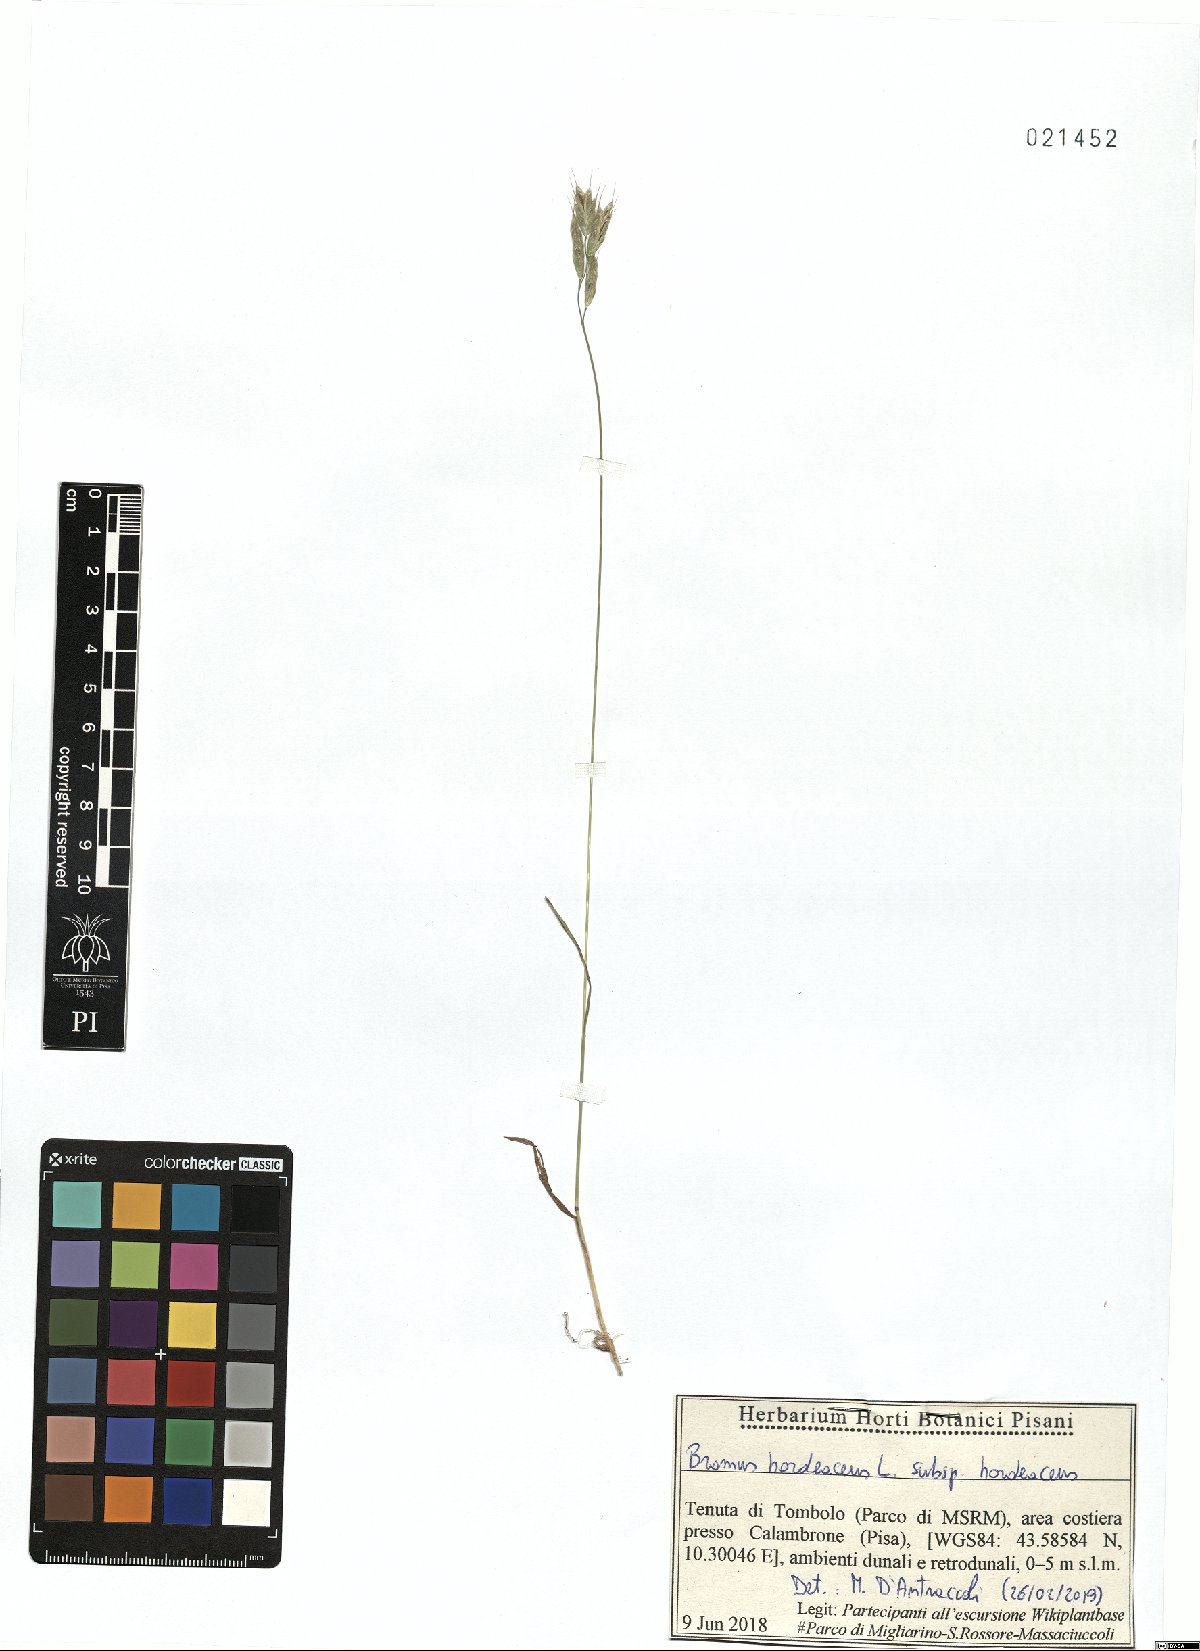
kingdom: Plantae
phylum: Tracheophyta
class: Liliopsida
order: Poales
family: Poaceae
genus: Bromus
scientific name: Bromus hordeaceus
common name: Soft brome
